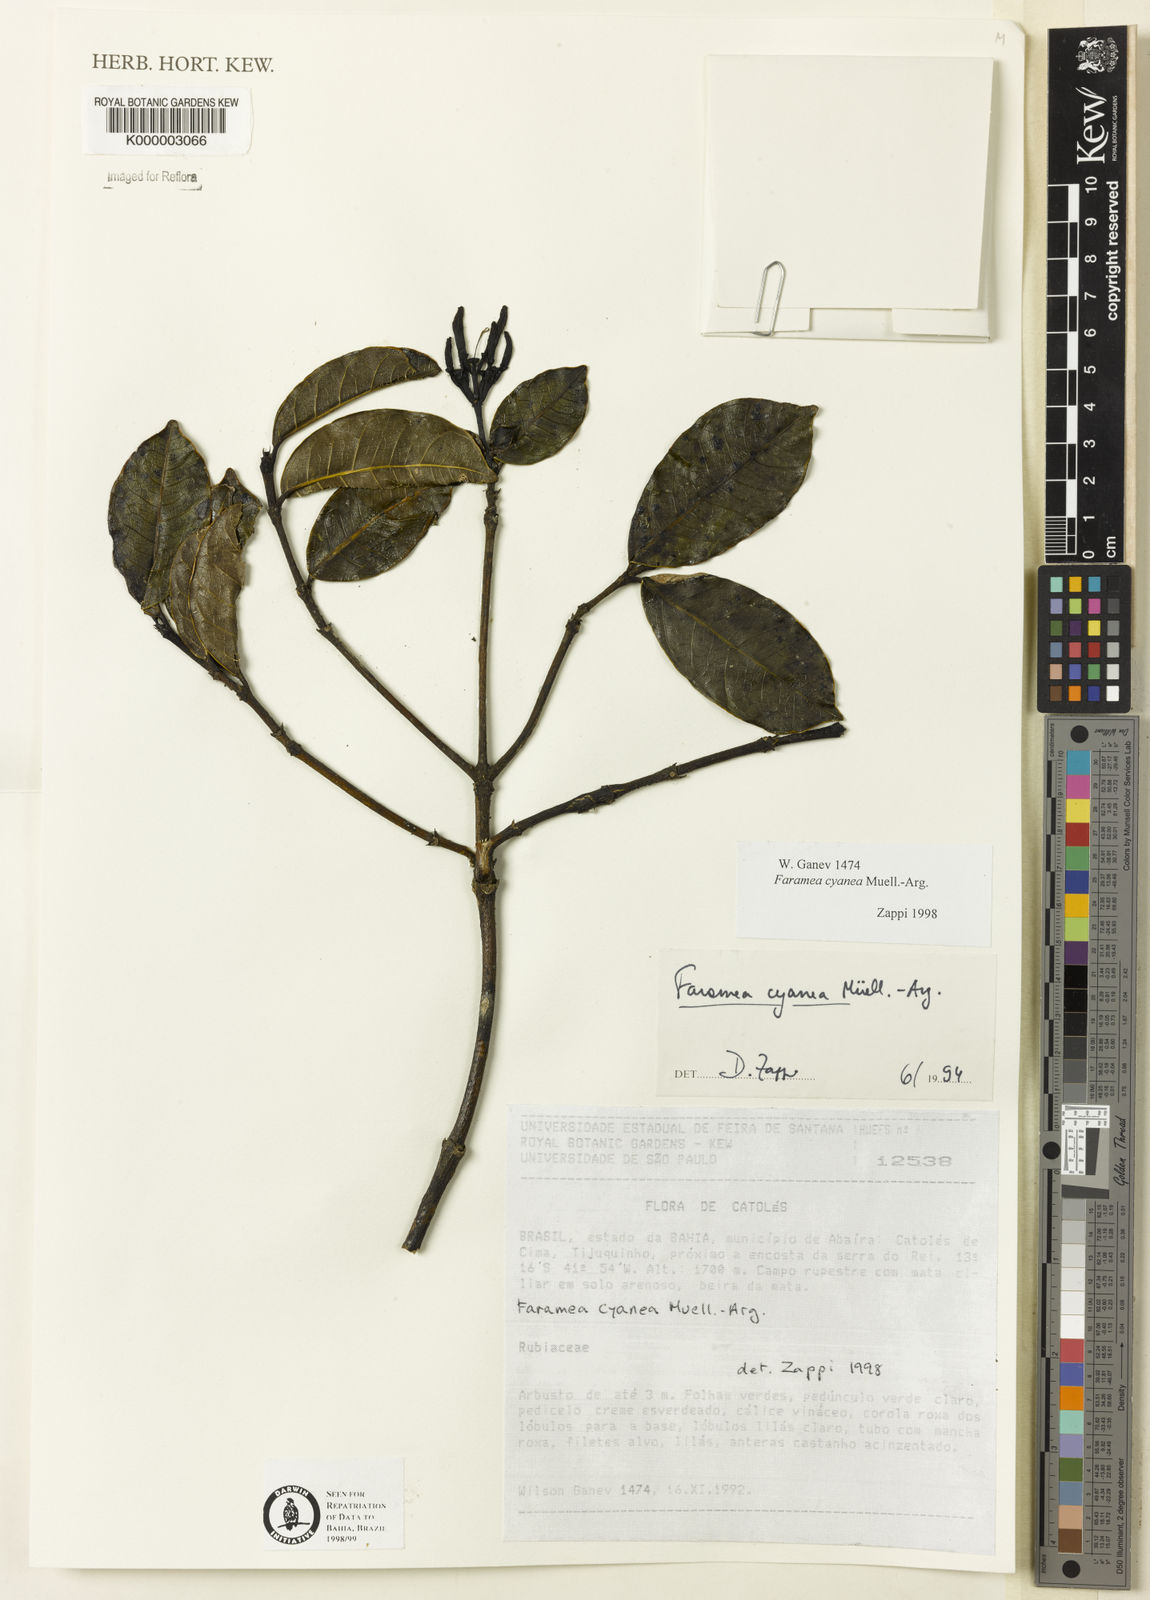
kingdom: Plantae
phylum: Tracheophyta
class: Magnoliopsida
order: Gentianales
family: Rubiaceae
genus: Faramea
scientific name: Faramea nigrescens
